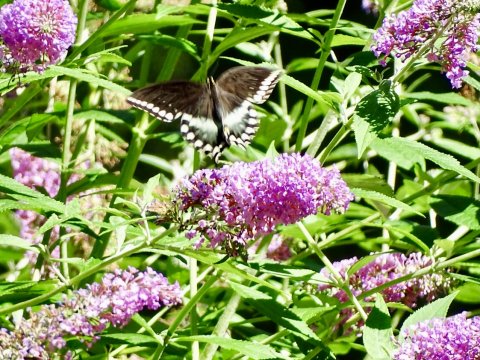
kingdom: Animalia
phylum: Arthropoda
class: Insecta
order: Lepidoptera
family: Papilionidae
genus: Pterourus
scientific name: Pterourus troilus
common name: Spicebush Swallowtail
